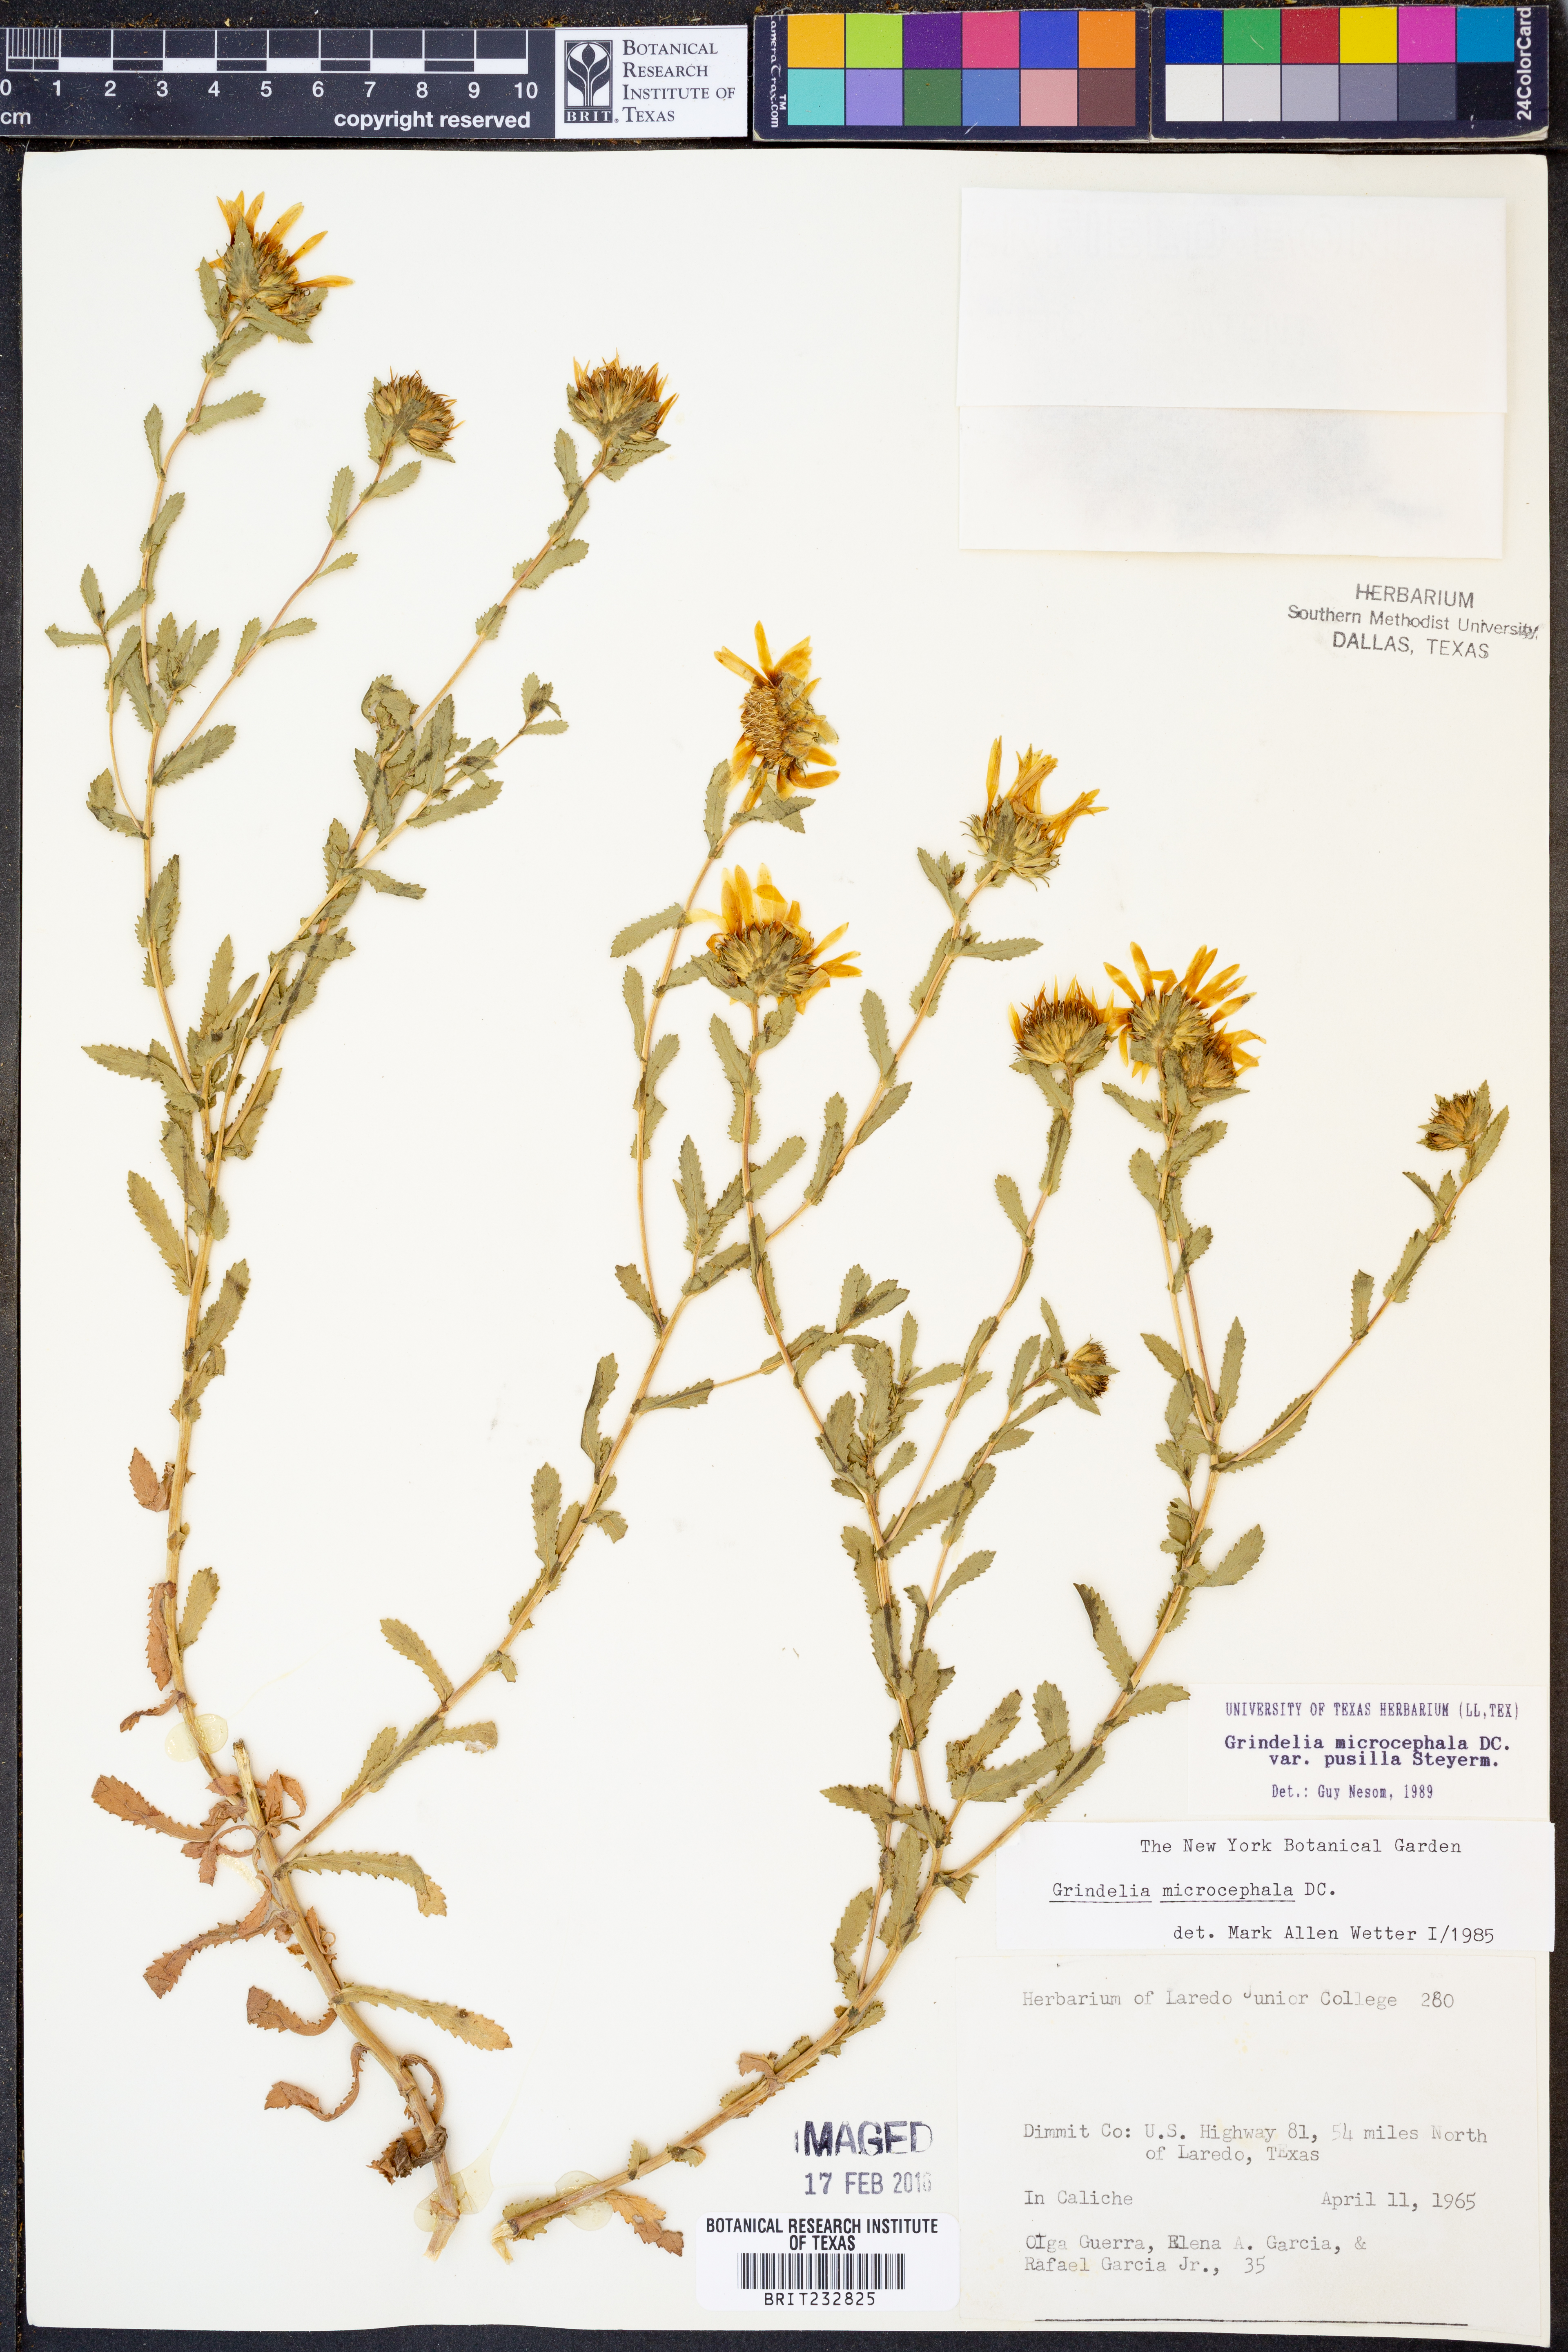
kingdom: Plantae
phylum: Tracheophyta
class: Magnoliopsida
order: Asterales
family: Asteraceae
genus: Grindelia
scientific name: Grindelia pusilla
